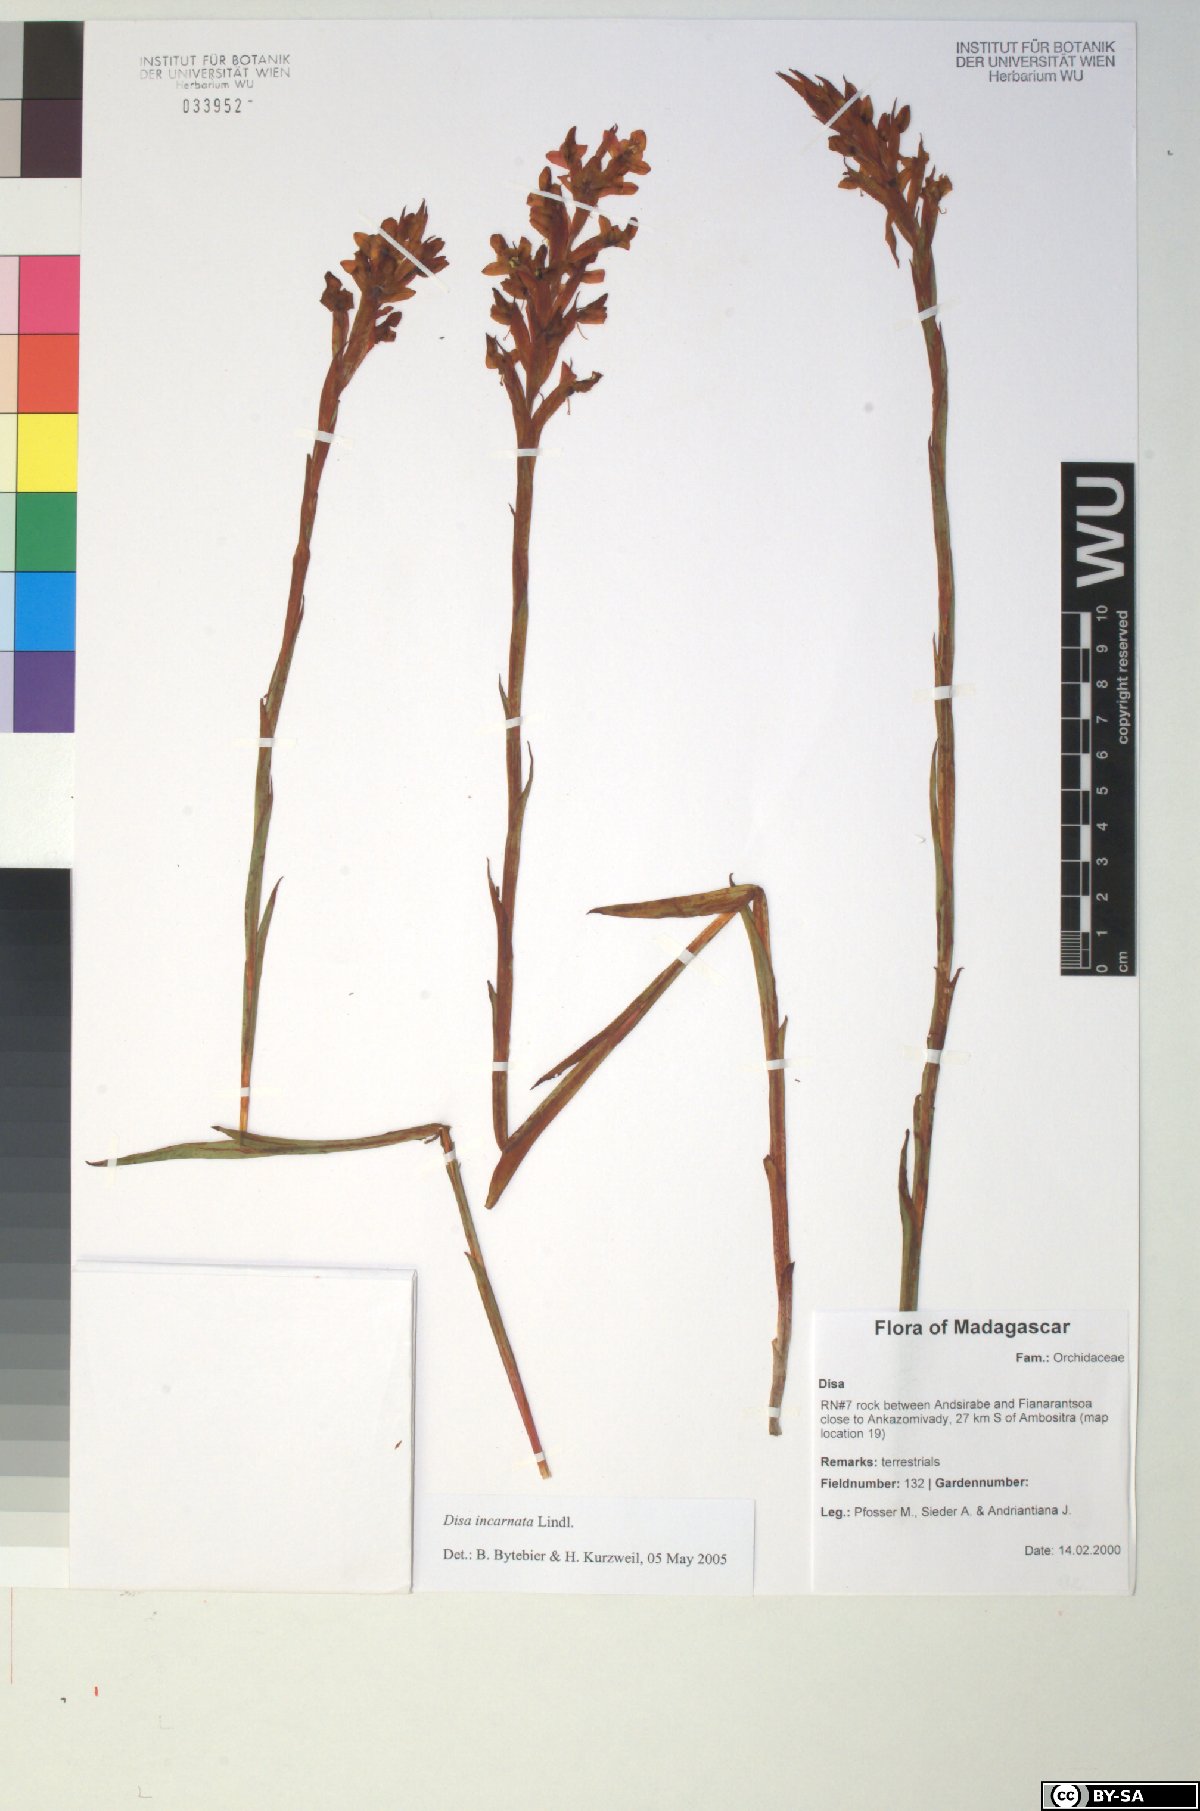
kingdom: Plantae
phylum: Tracheophyta
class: Liliopsida
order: Asparagales
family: Orchidaceae
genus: Disa
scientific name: Disa incarnata
